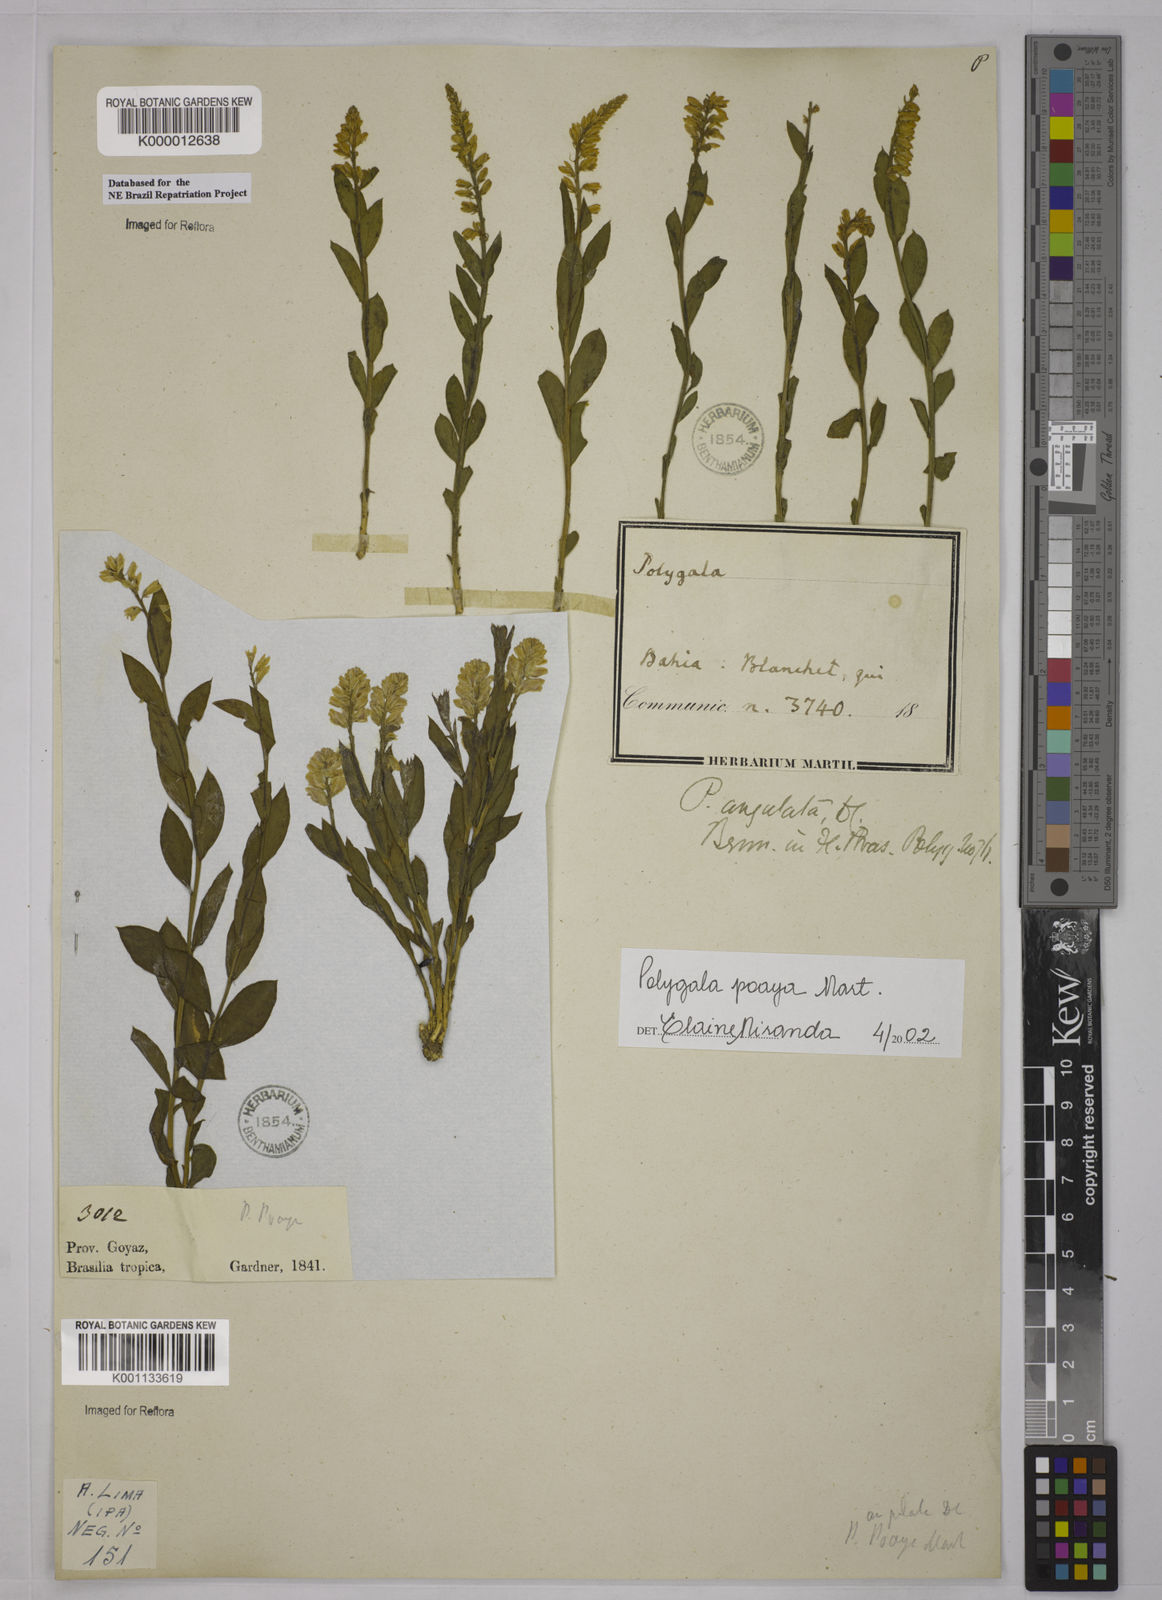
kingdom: Plantae
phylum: Tracheophyta
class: Magnoliopsida
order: Fabales
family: Polygalaceae
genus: Polygala
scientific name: Polygala poaya
